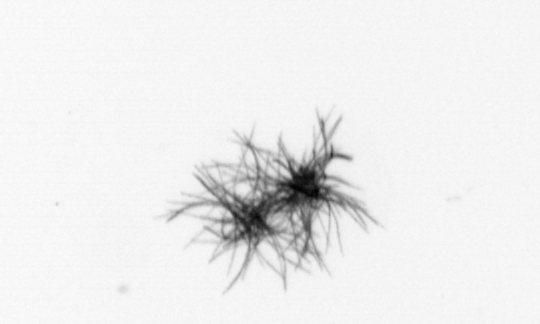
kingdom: Bacteria
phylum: Cyanobacteria
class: Cyanobacteriia
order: Cyanobacteriales
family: Microcoleaceae
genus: Trichodesmium
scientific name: Trichodesmium
